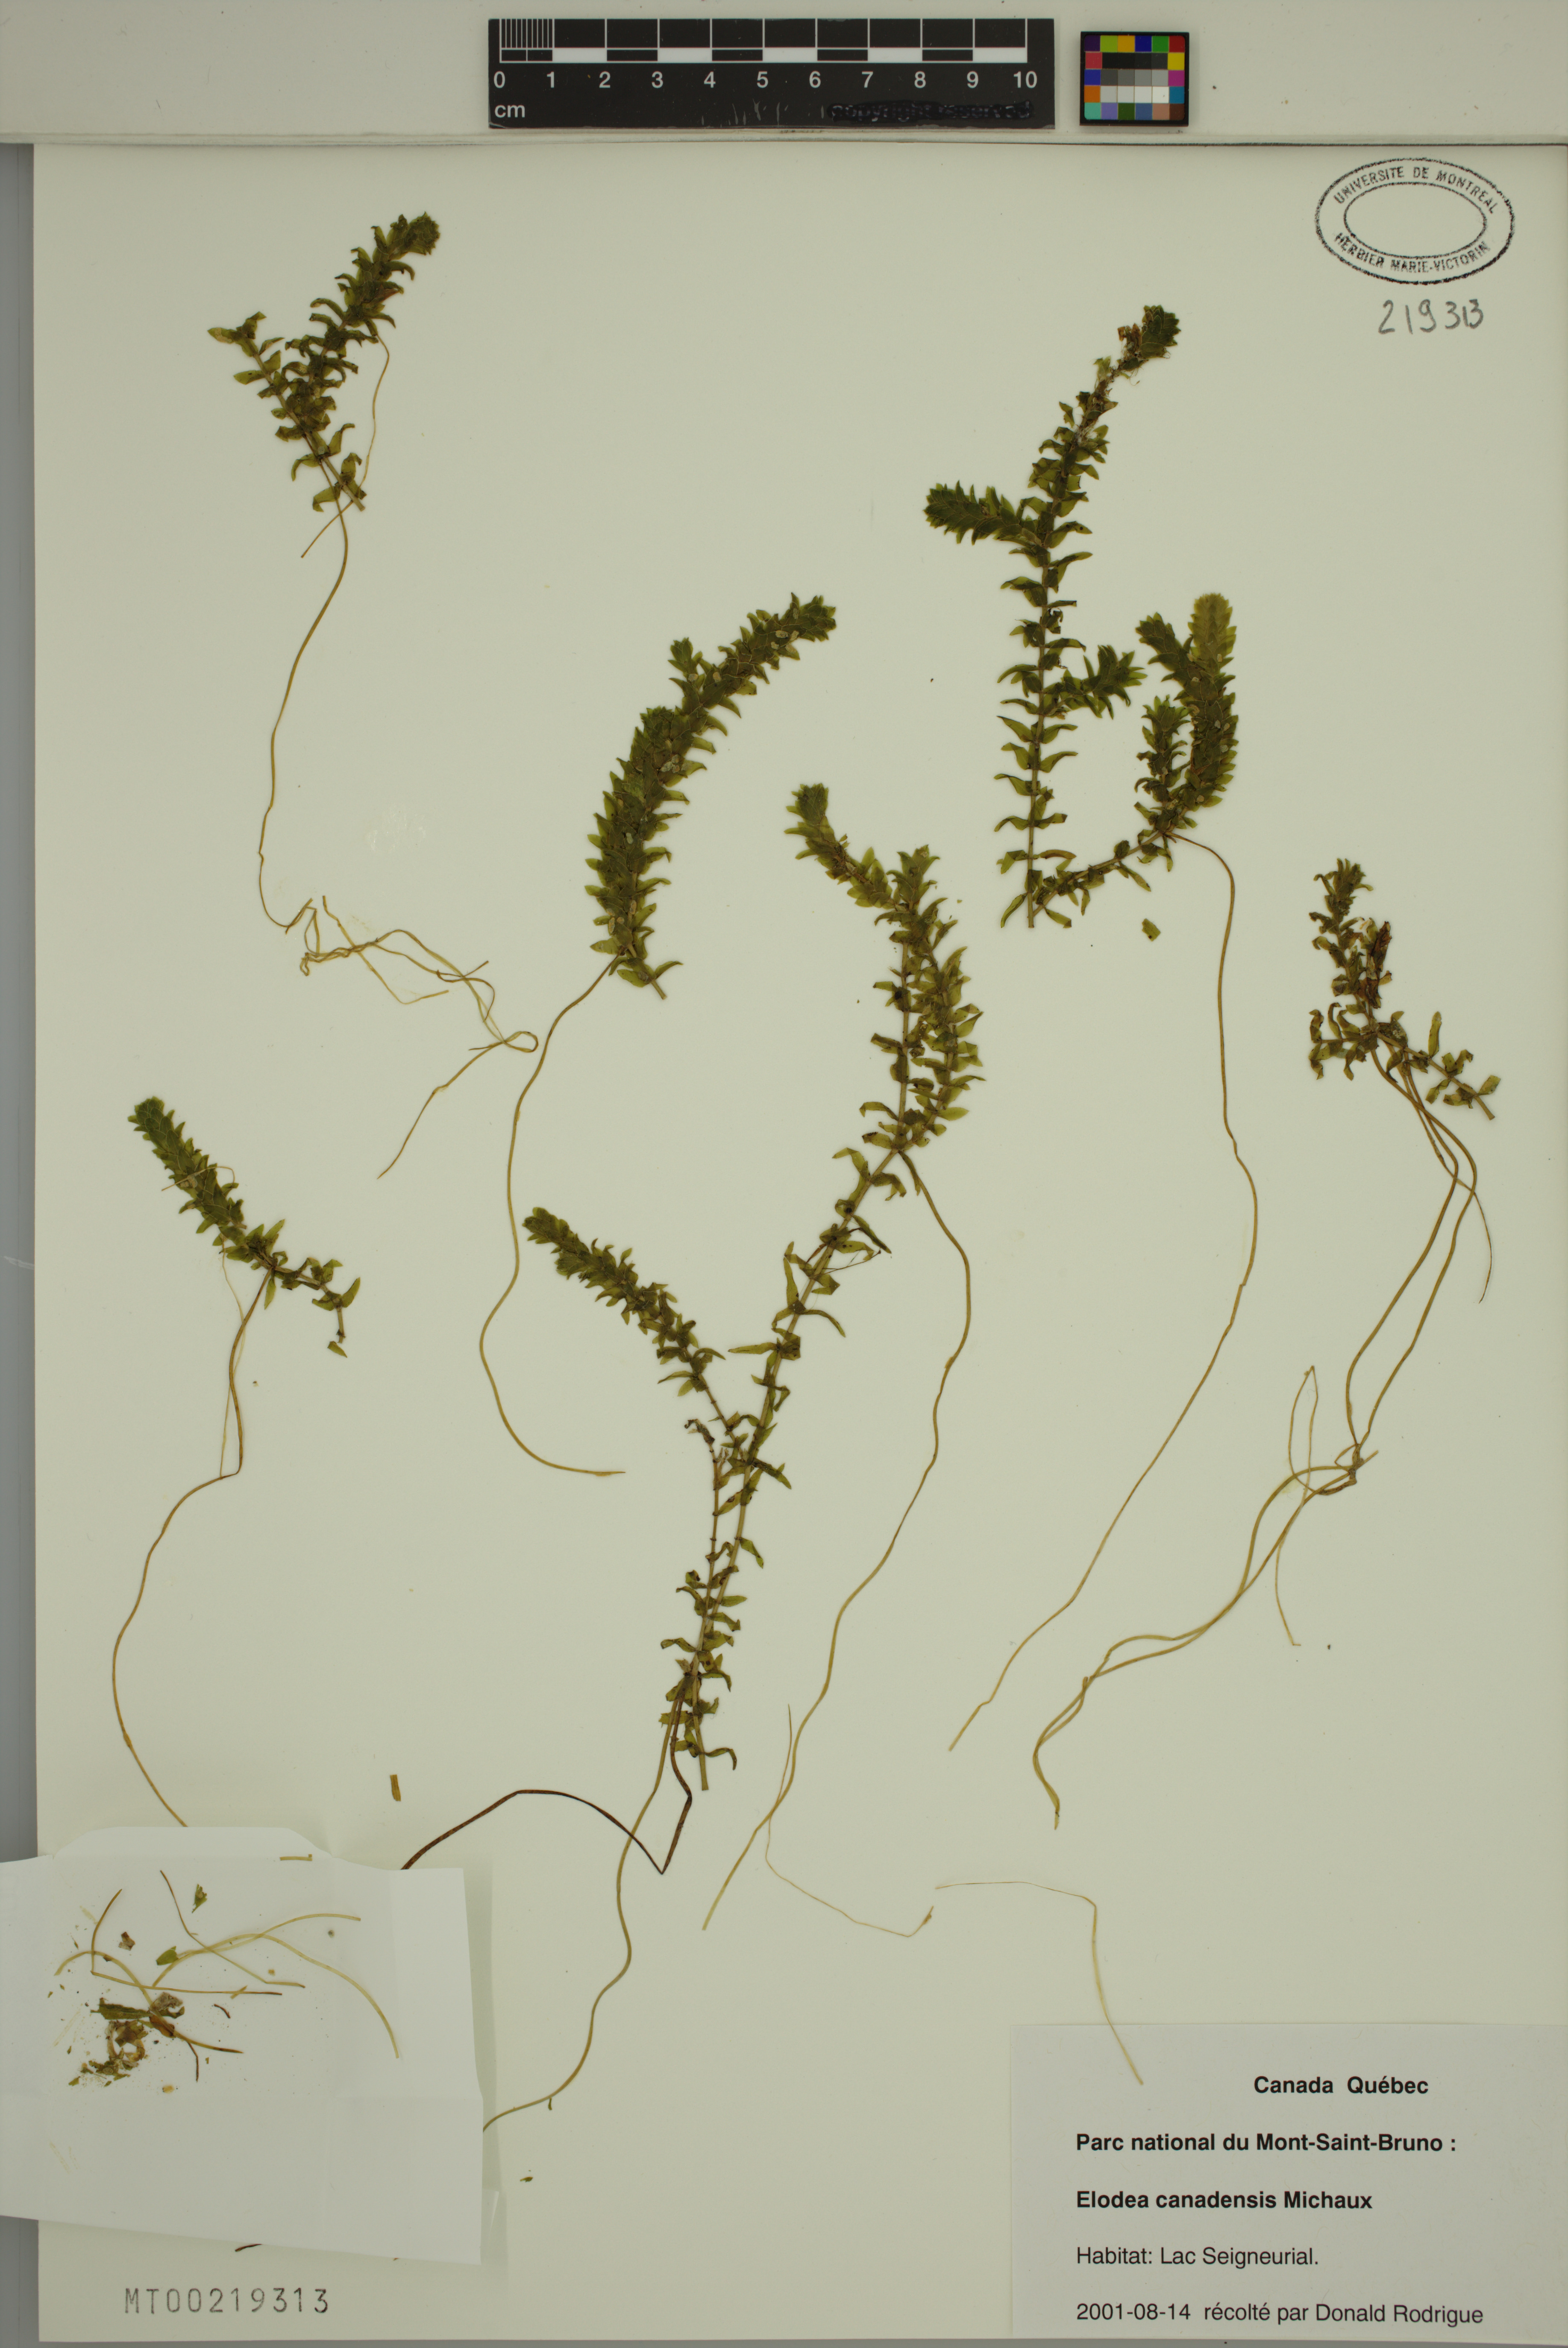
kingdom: Plantae
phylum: Tracheophyta
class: Liliopsida
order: Alismatales
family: Hydrocharitaceae
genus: Elodea
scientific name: Elodea canadensis
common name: Canadian waterweed
